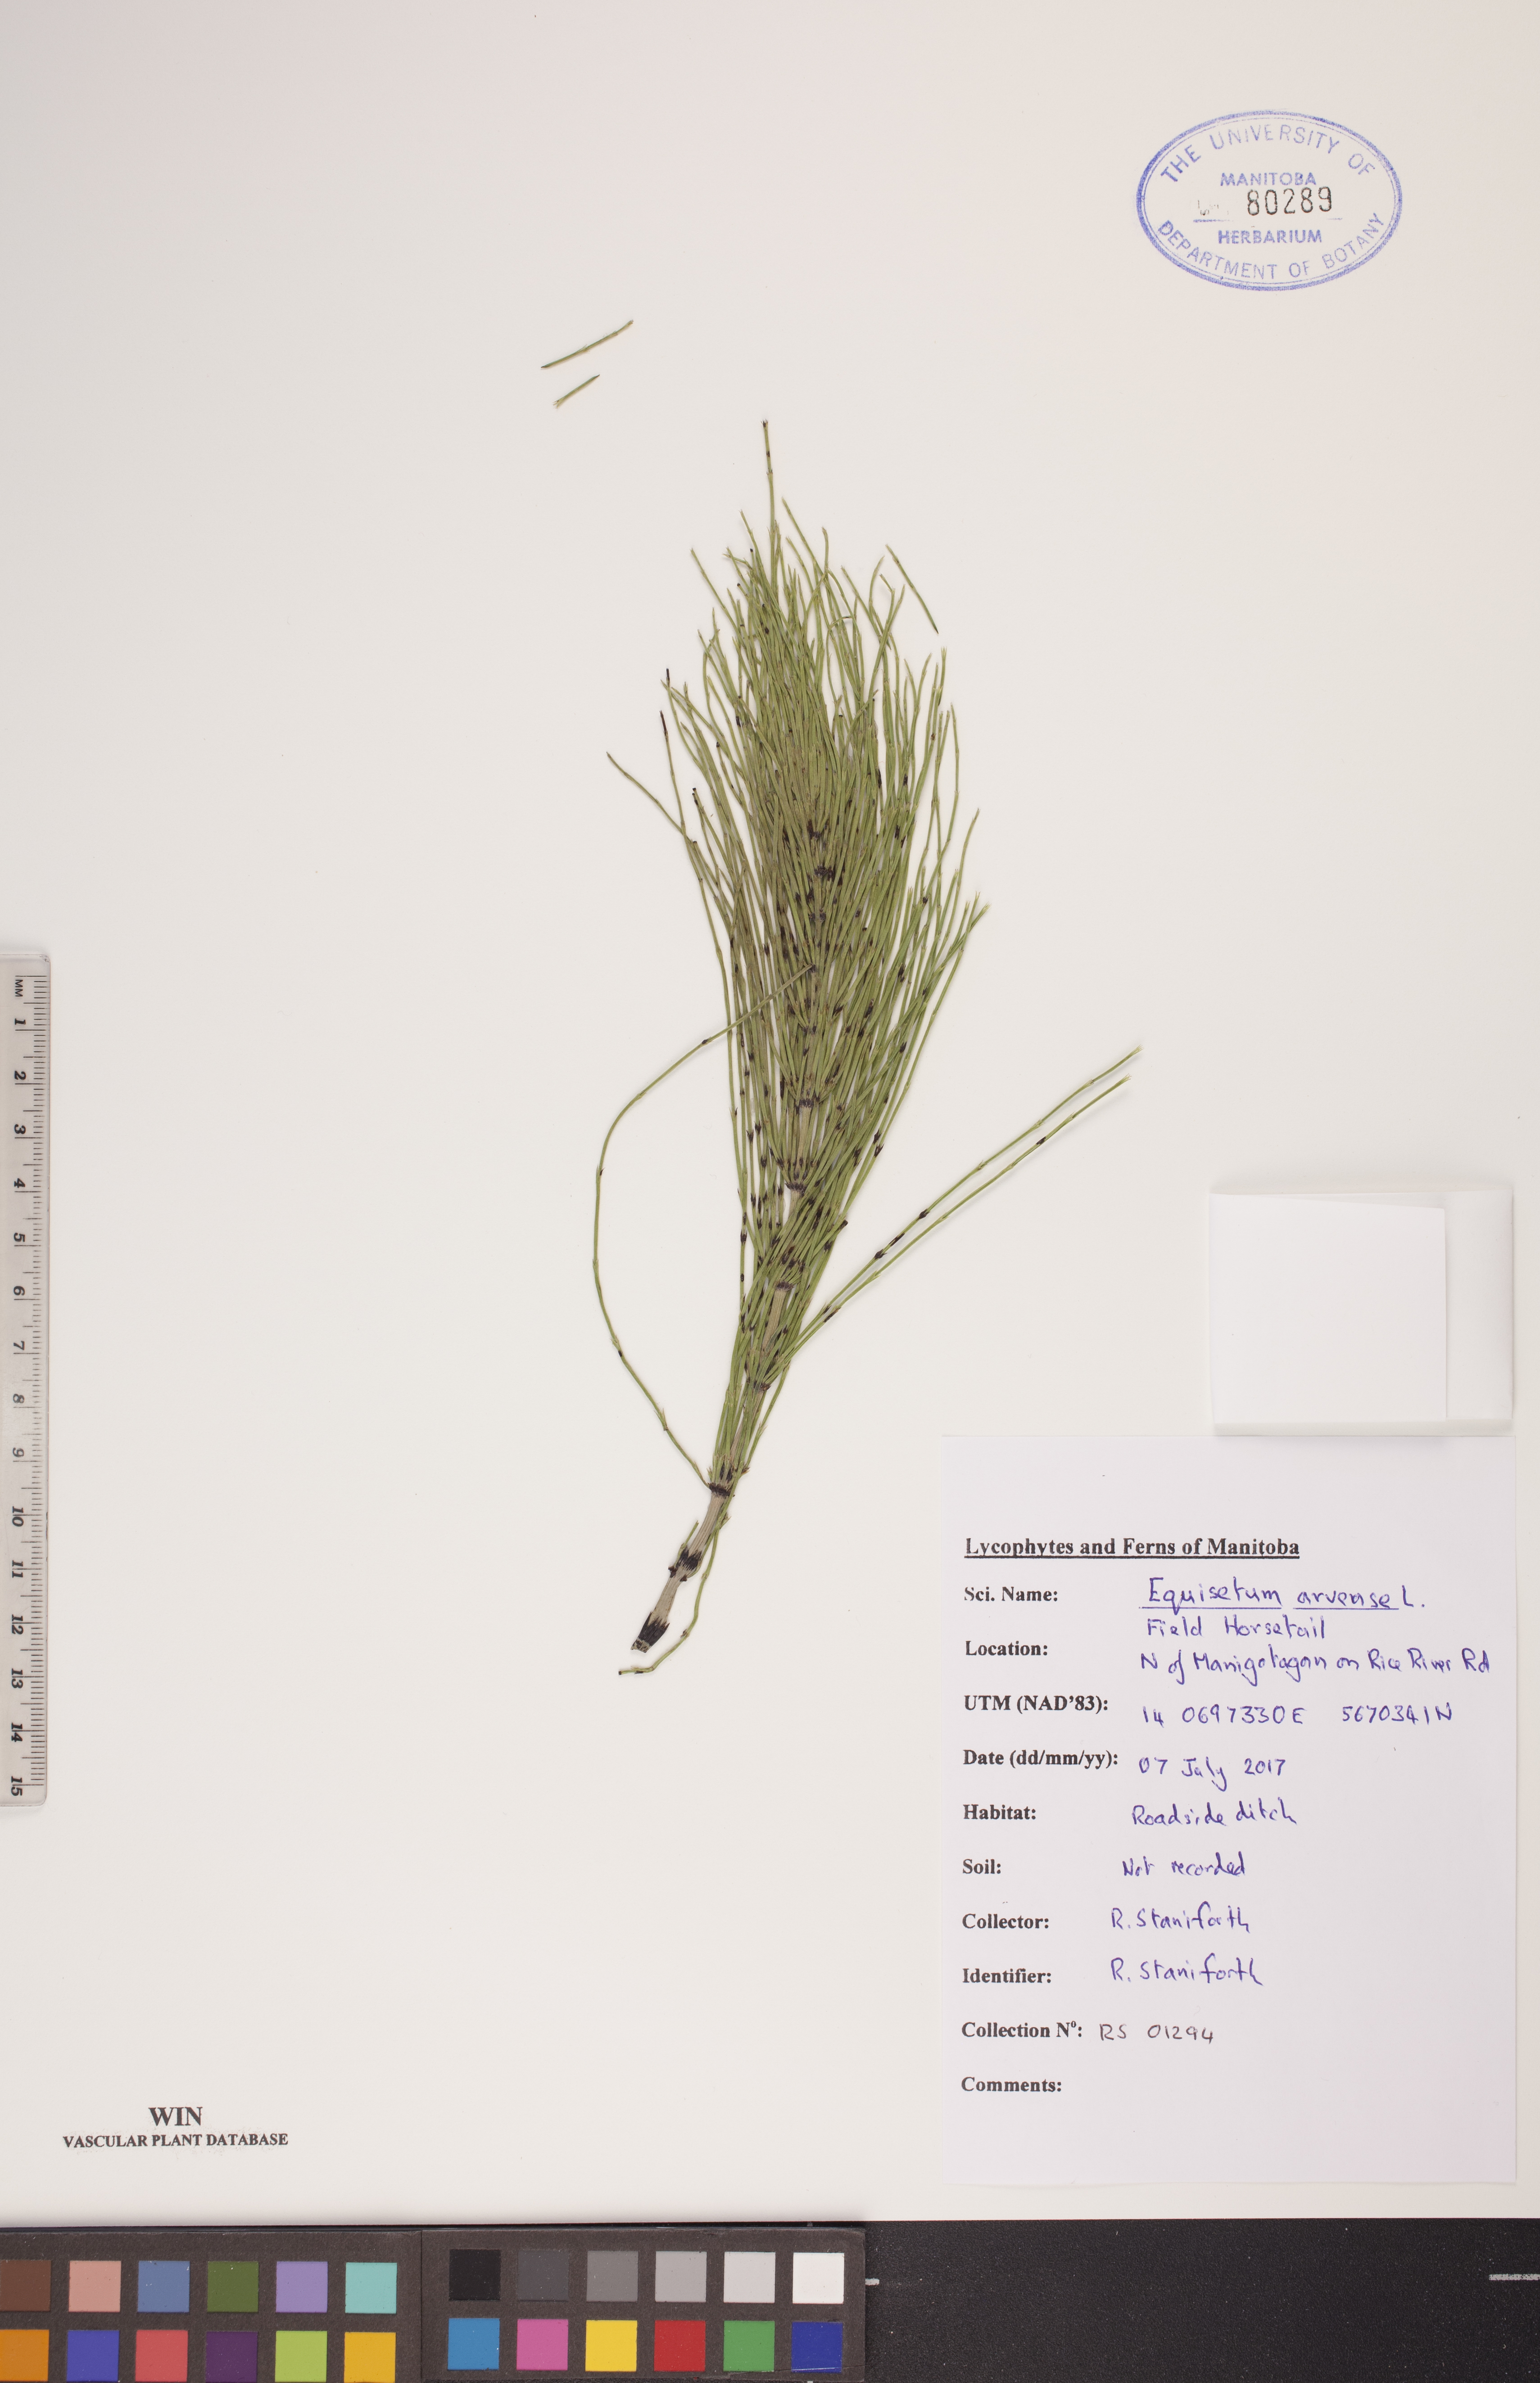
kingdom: Plantae
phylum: Tracheophyta
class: Polypodiopsida
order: Equisetales
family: Equisetaceae
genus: Equisetum
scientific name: Equisetum arvense
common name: Field horsetail
